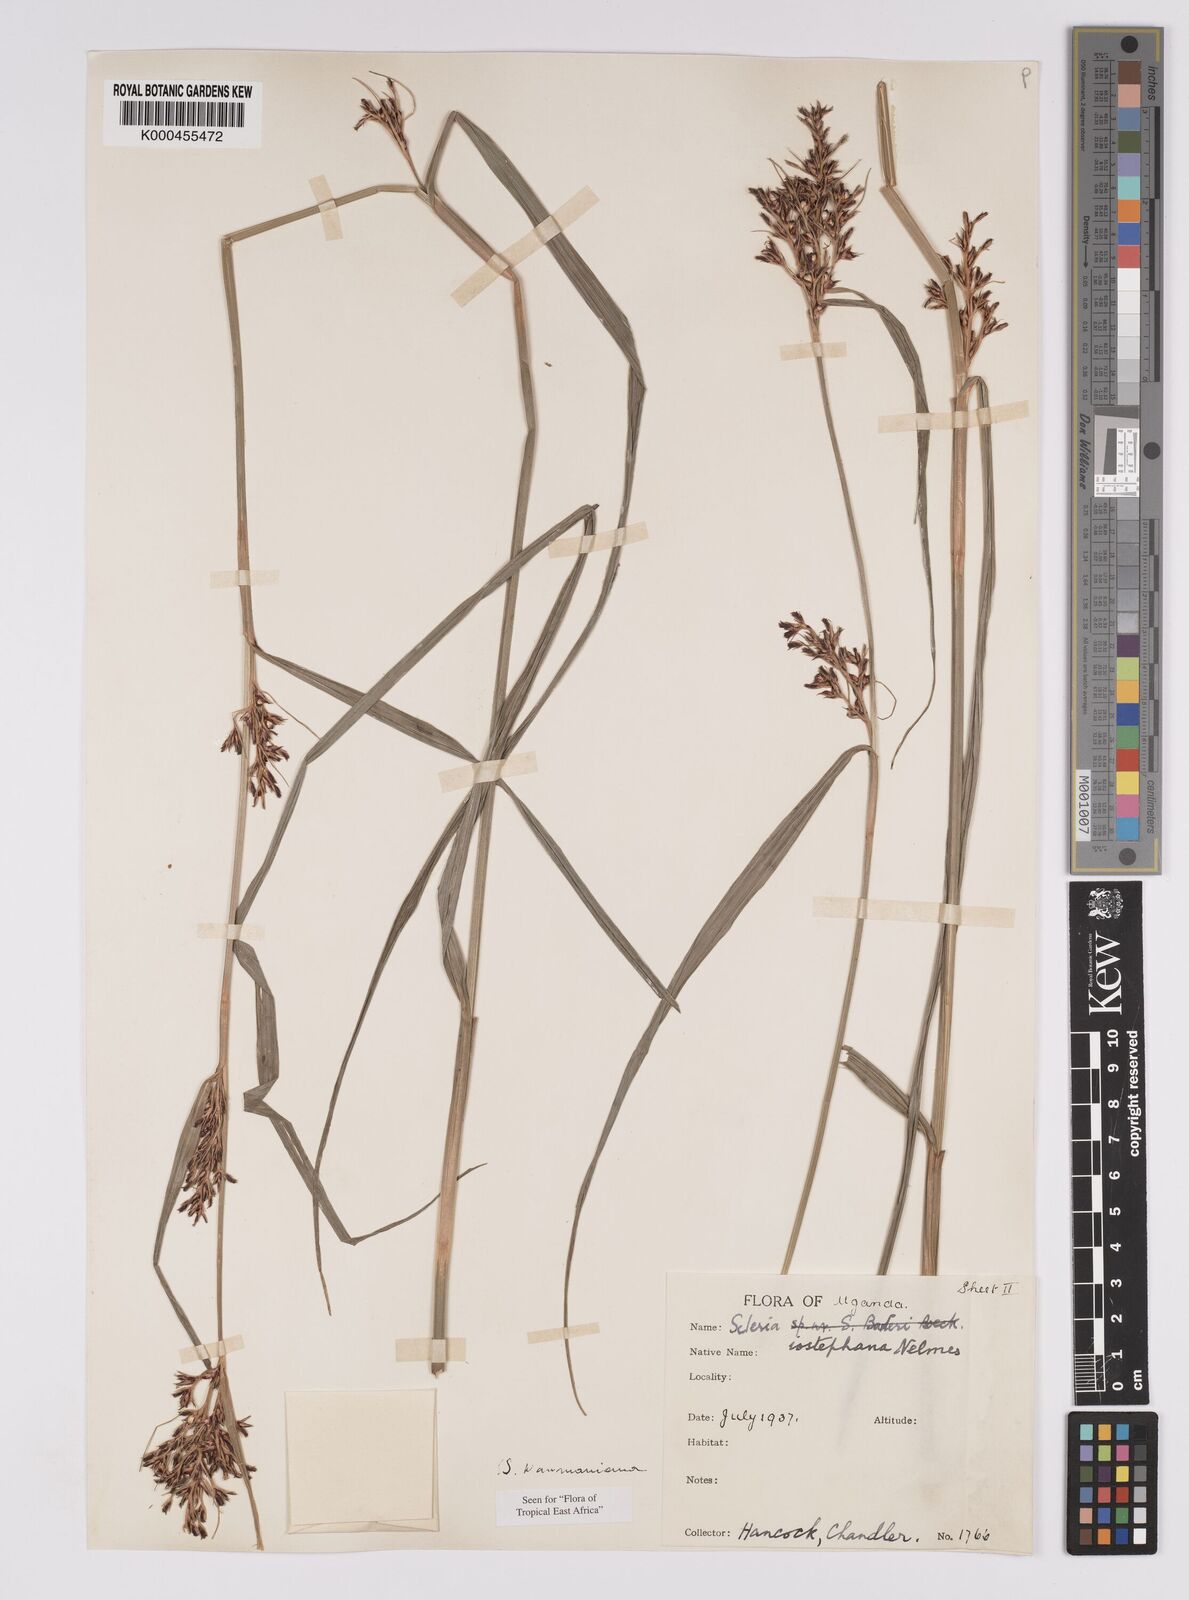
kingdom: Plantae
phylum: Tracheophyta
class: Liliopsida
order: Poales
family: Cyperaceae
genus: Scleria
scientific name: Scleria iostephana
